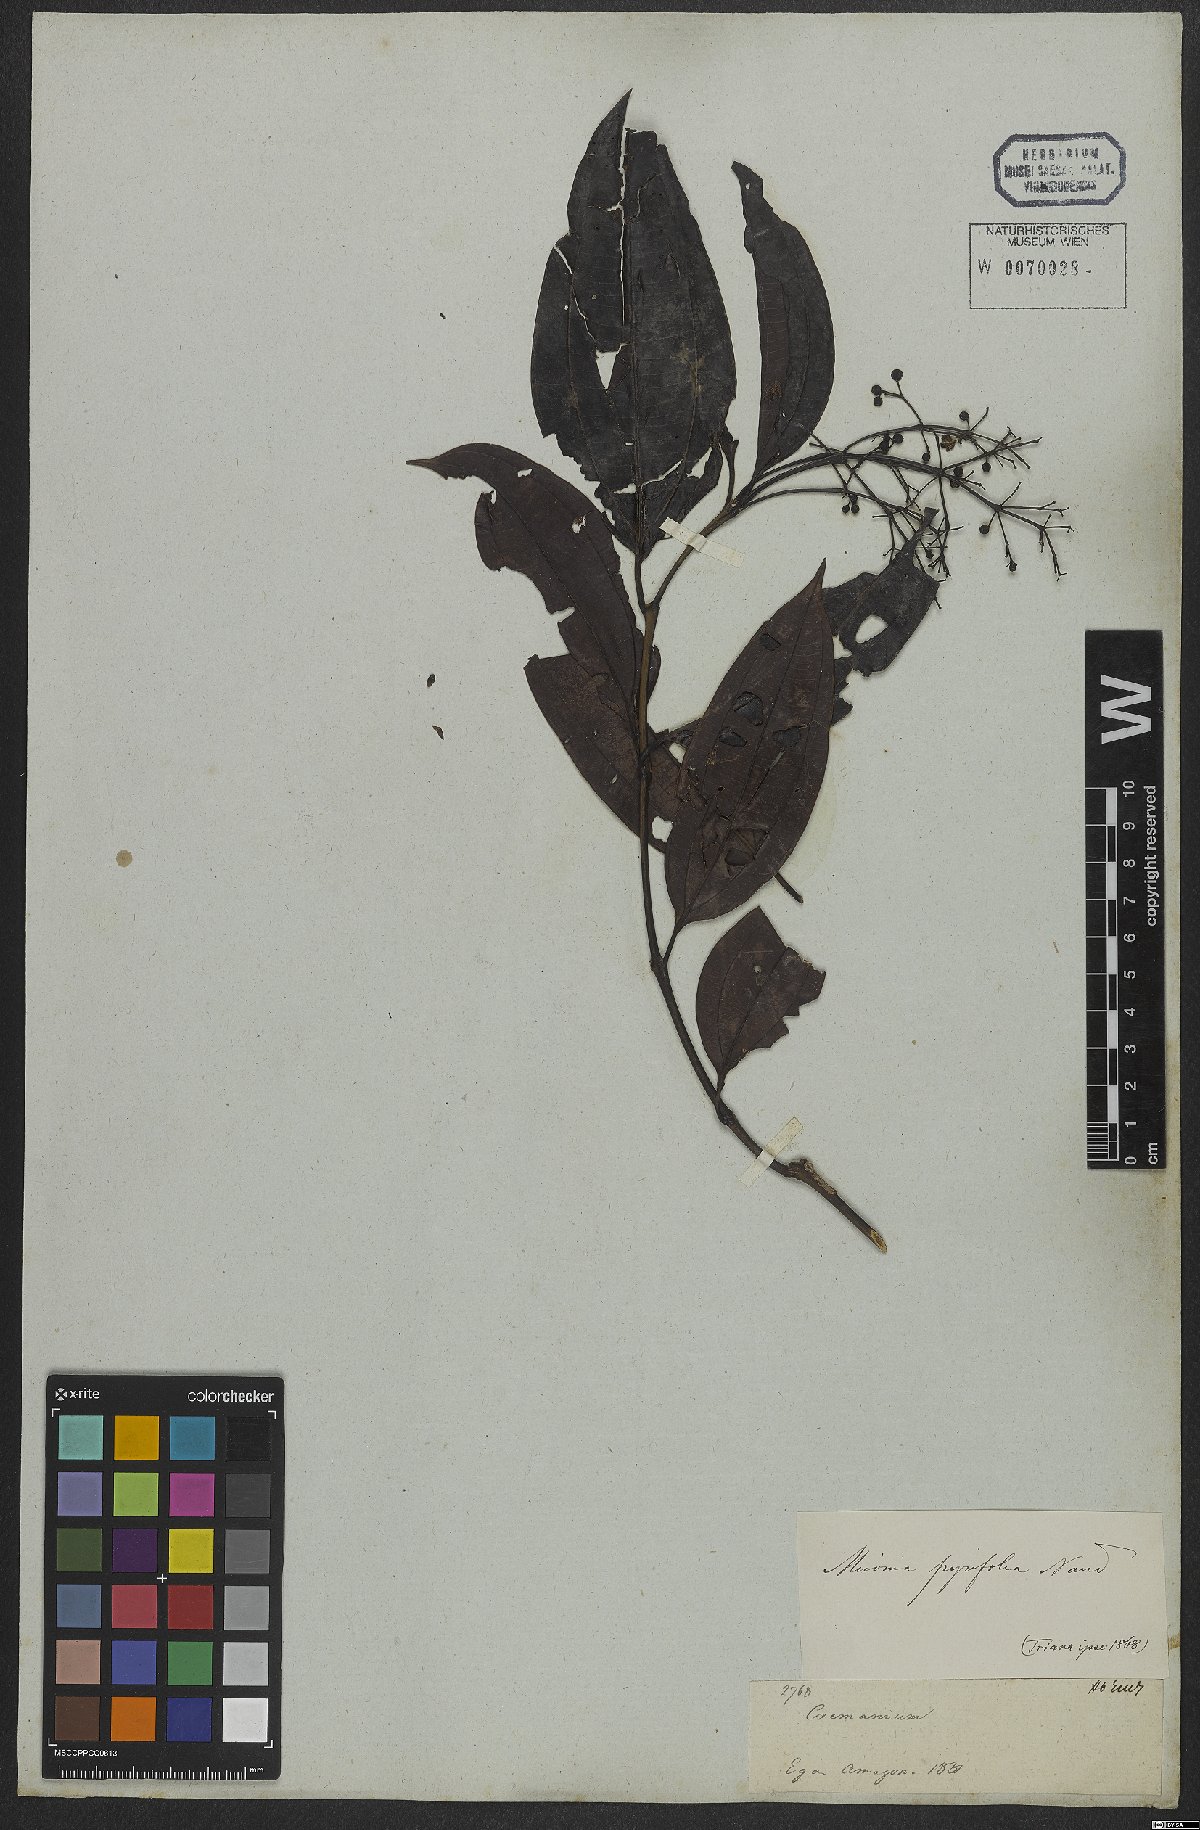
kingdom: Plantae
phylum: Tracheophyta
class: Magnoliopsida
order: Myrtales
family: Melastomataceae
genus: Miconia
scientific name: Miconia pyrifolia
